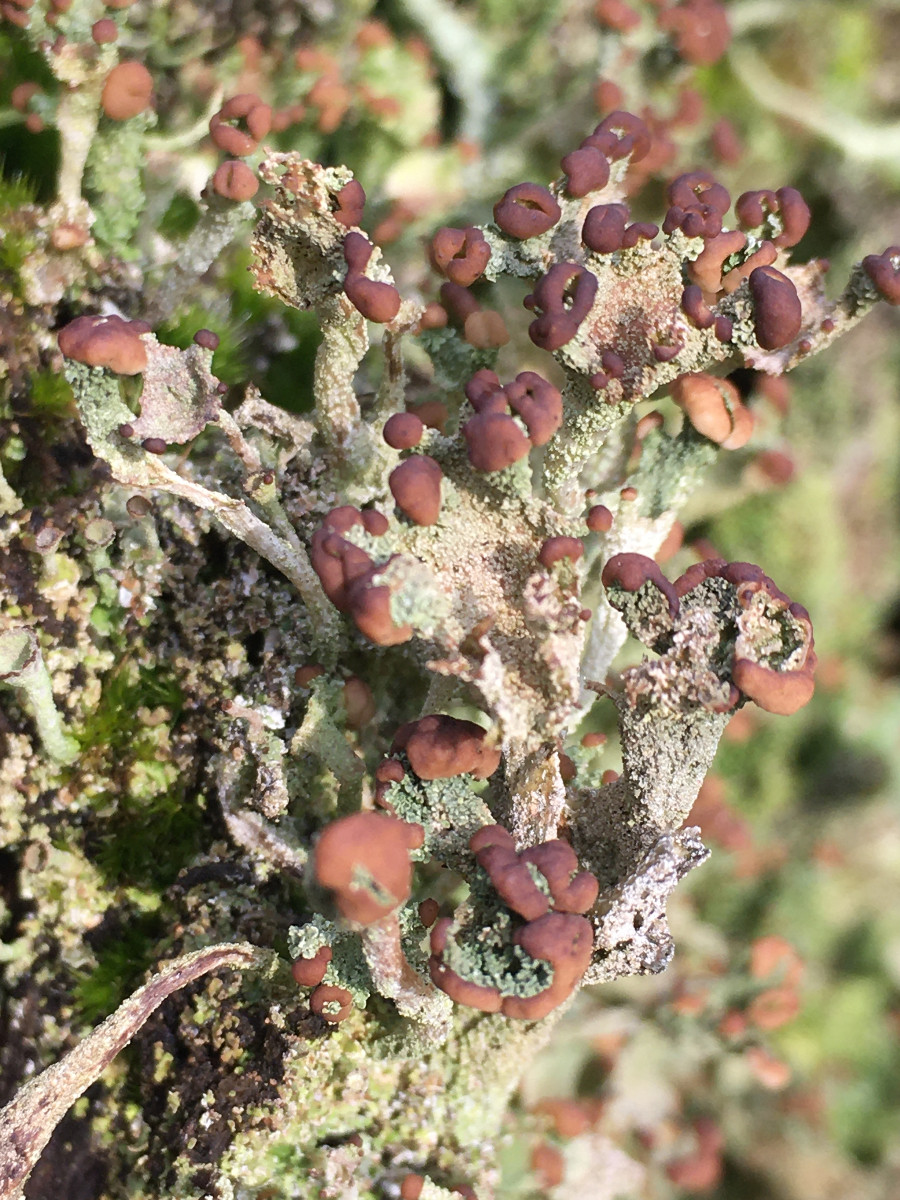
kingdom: Fungi
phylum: Ascomycota
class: Lecanoromycetes
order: Lecanorales
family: Cladoniaceae
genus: Cladonia
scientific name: Cladonia
